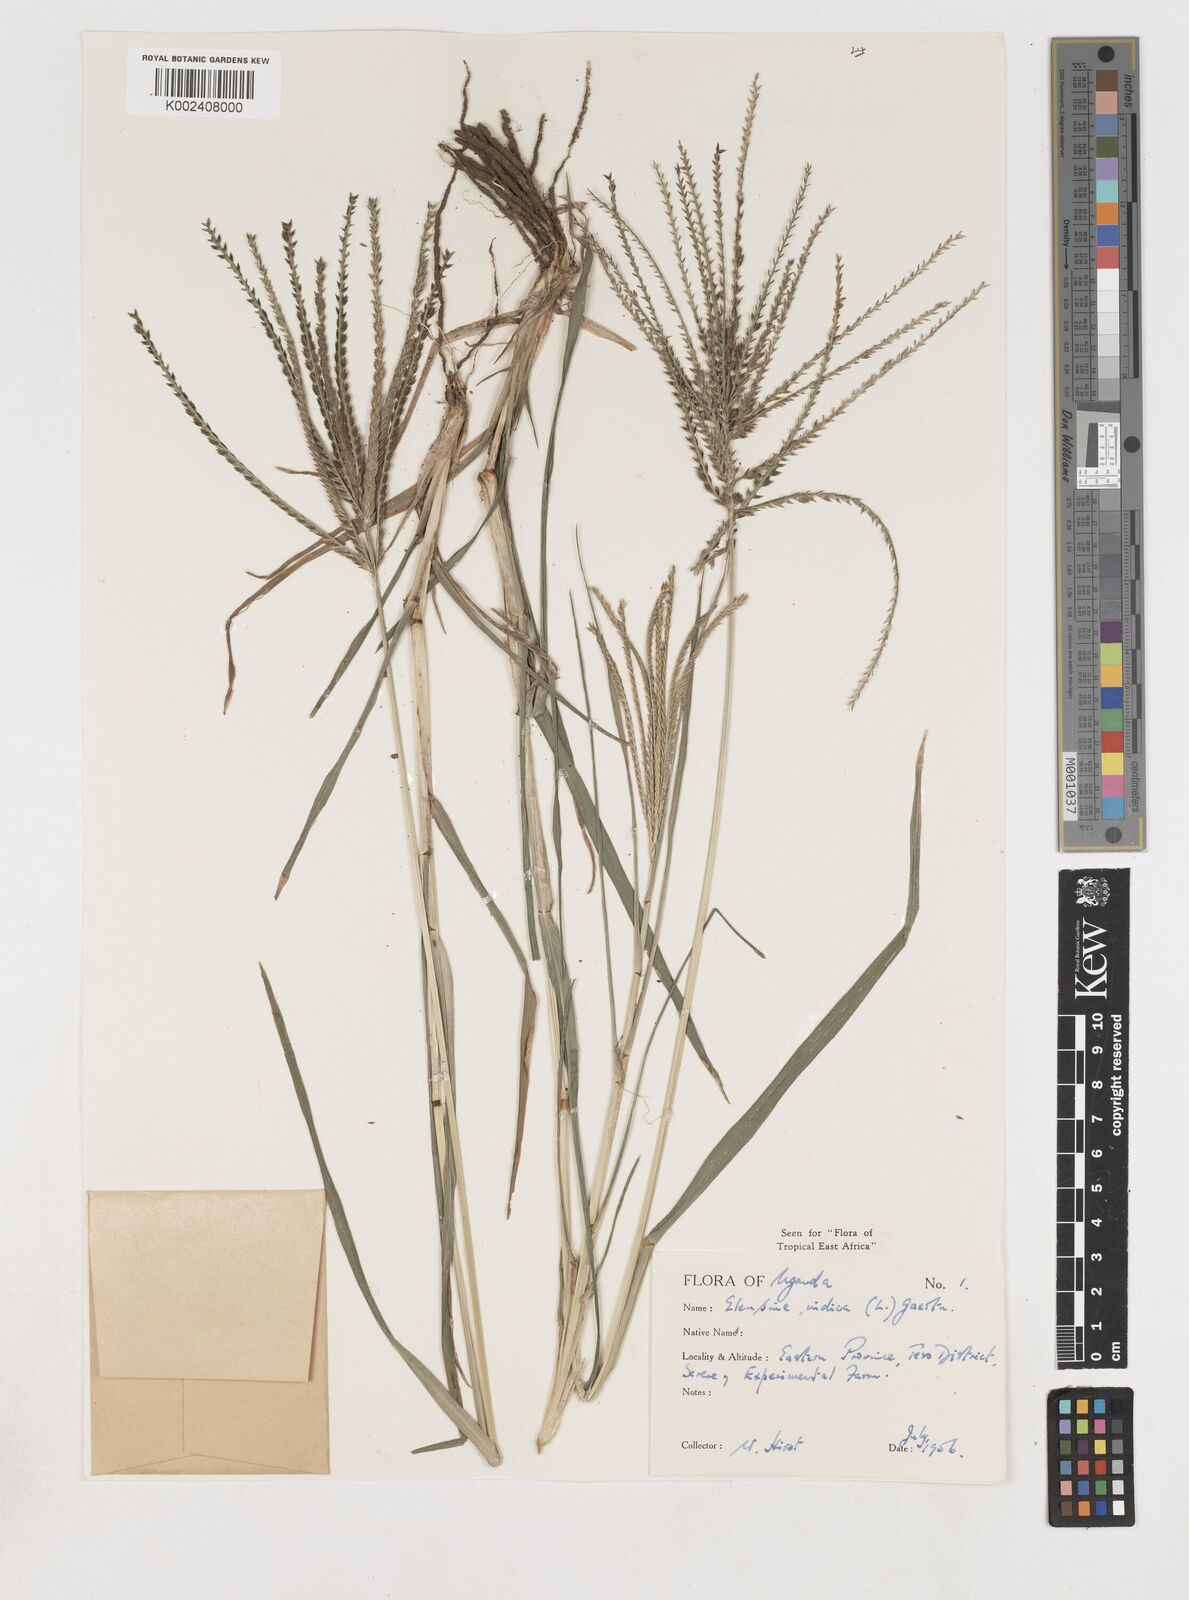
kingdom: Plantae
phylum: Tracheophyta
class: Liliopsida
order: Poales
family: Poaceae
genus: Eleusine
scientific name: Eleusine indica
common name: Yard-grass
